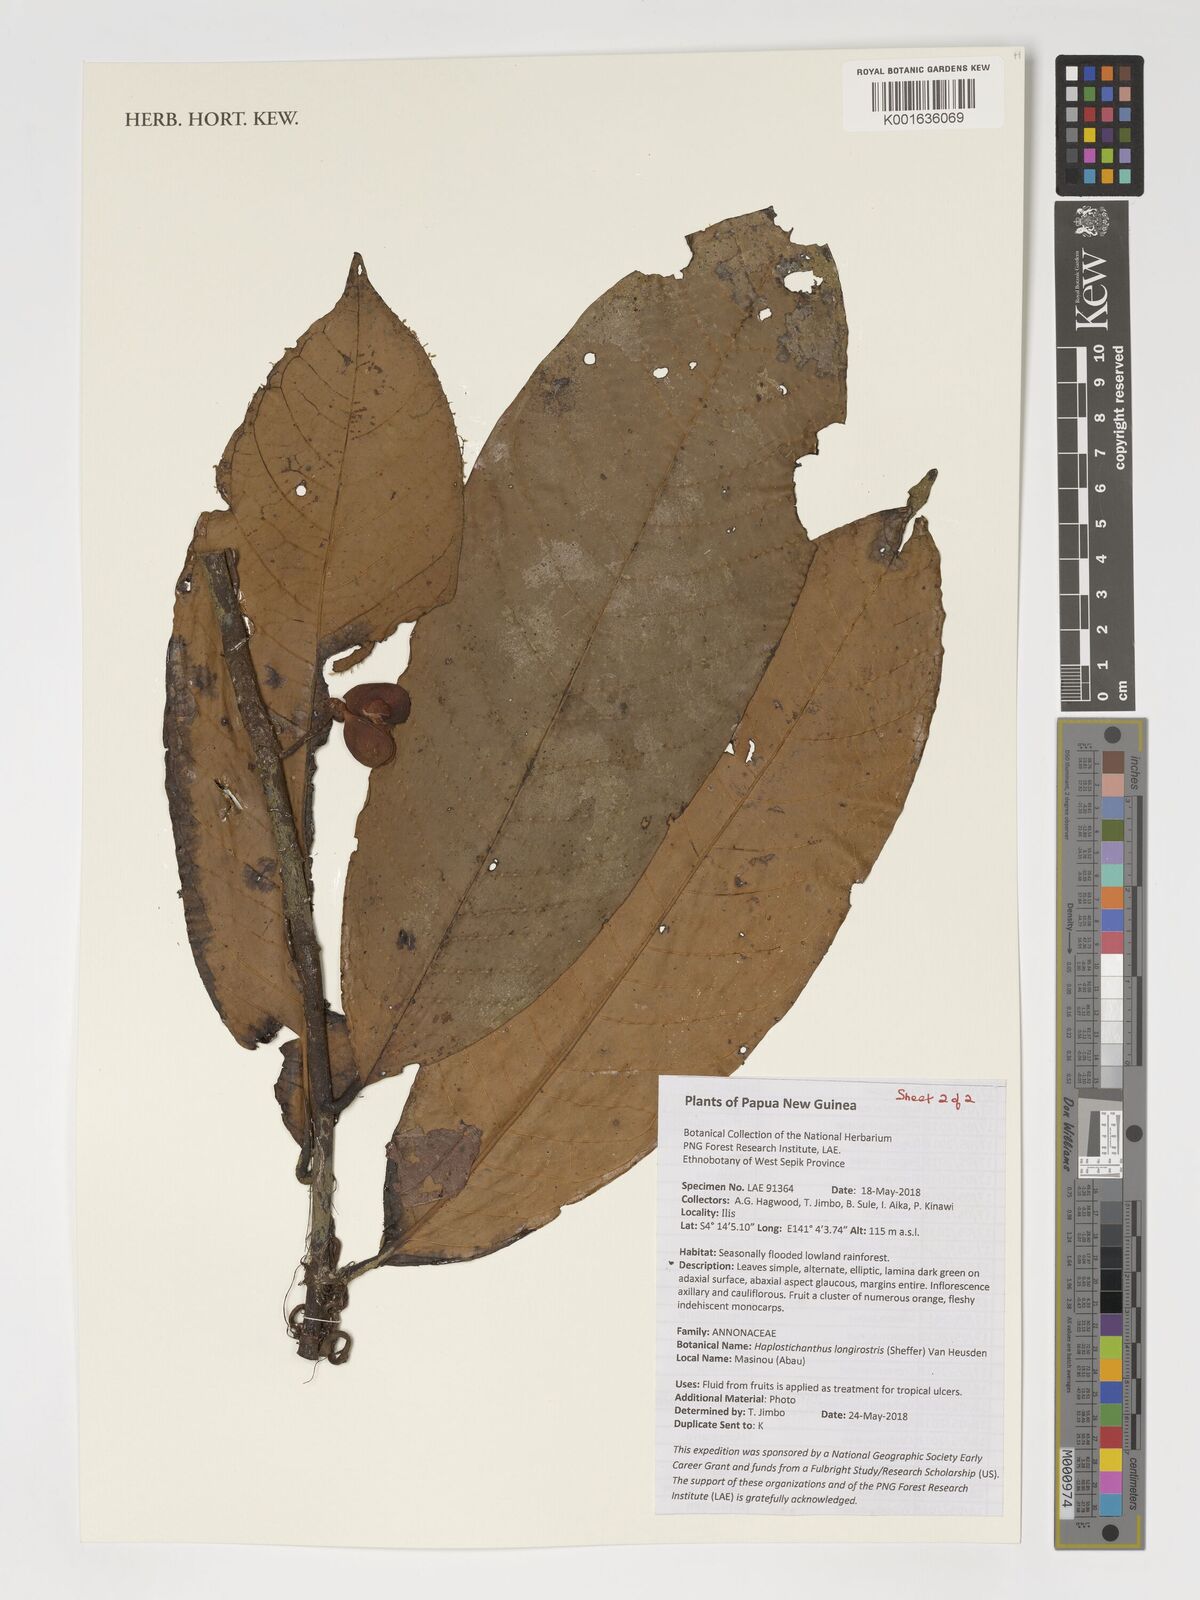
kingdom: Plantae
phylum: Tracheophyta
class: Magnoliopsida
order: Magnoliales
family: Annonaceae
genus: Haplostichanthus
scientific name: Haplostichanthus longirostris
